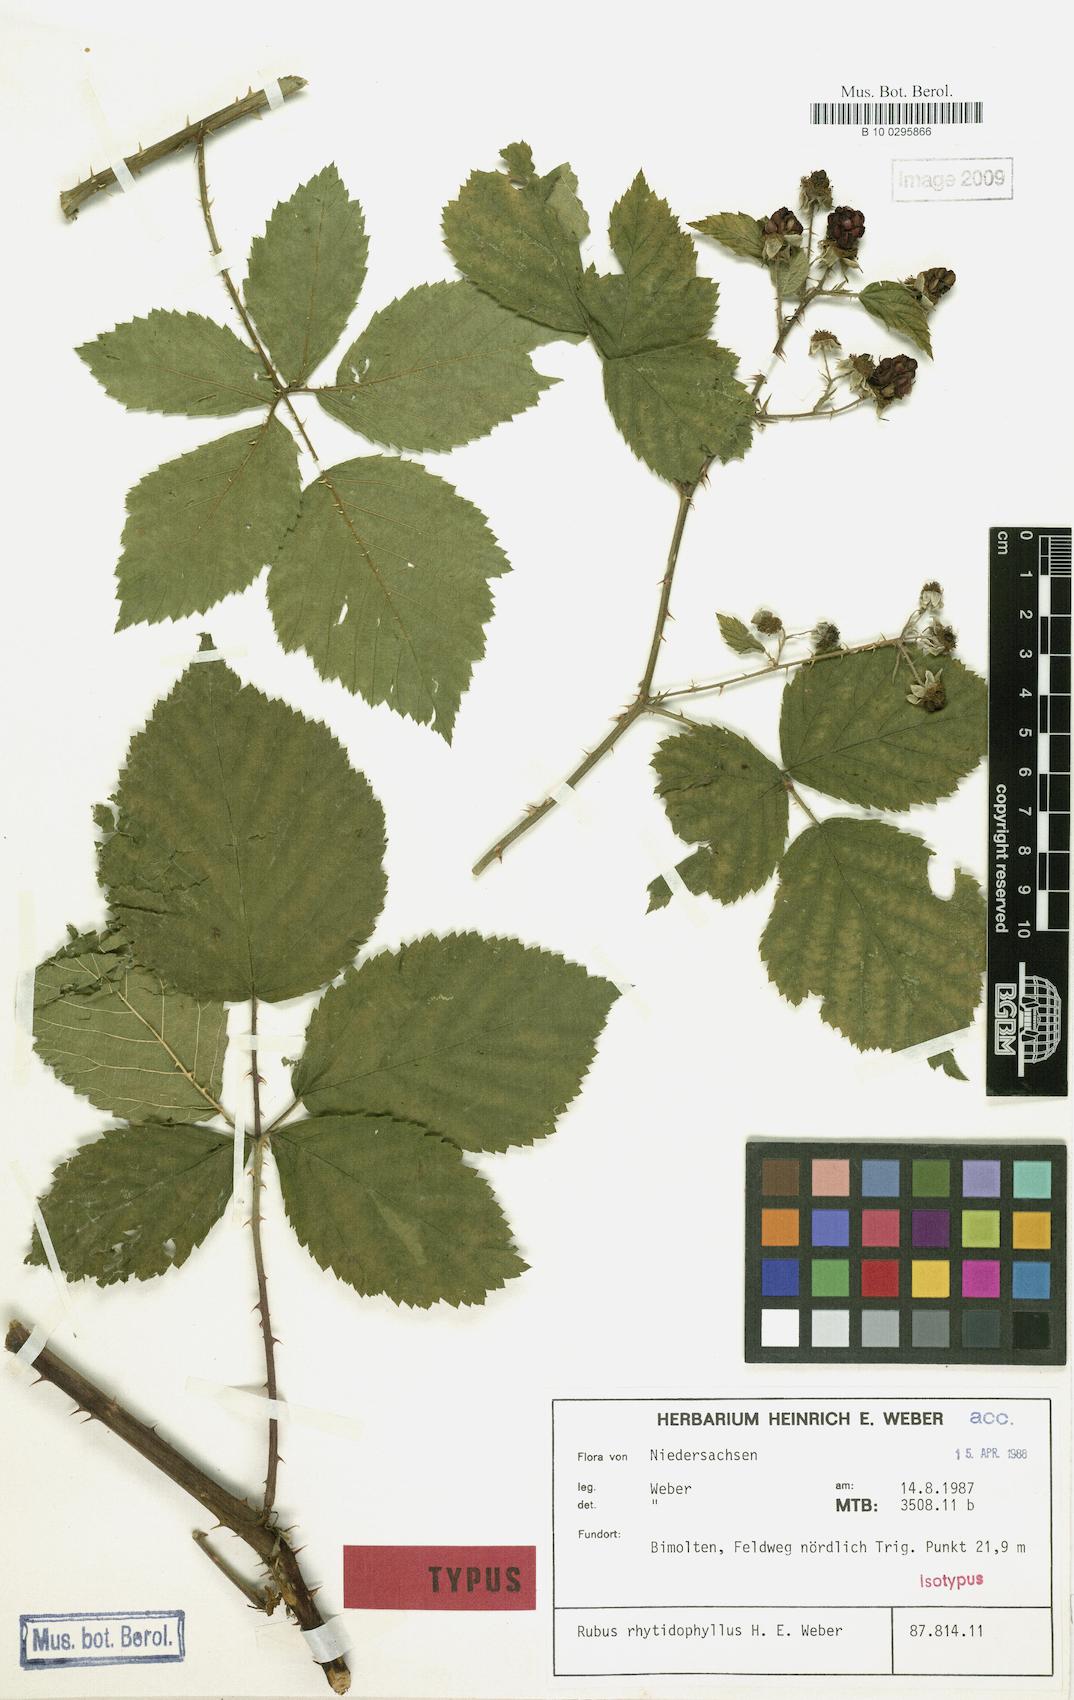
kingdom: Plantae
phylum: Tracheophyta
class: Magnoliopsida
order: Rosales
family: Rosaceae
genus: Rubus
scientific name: Rubus rhytidophyllus
